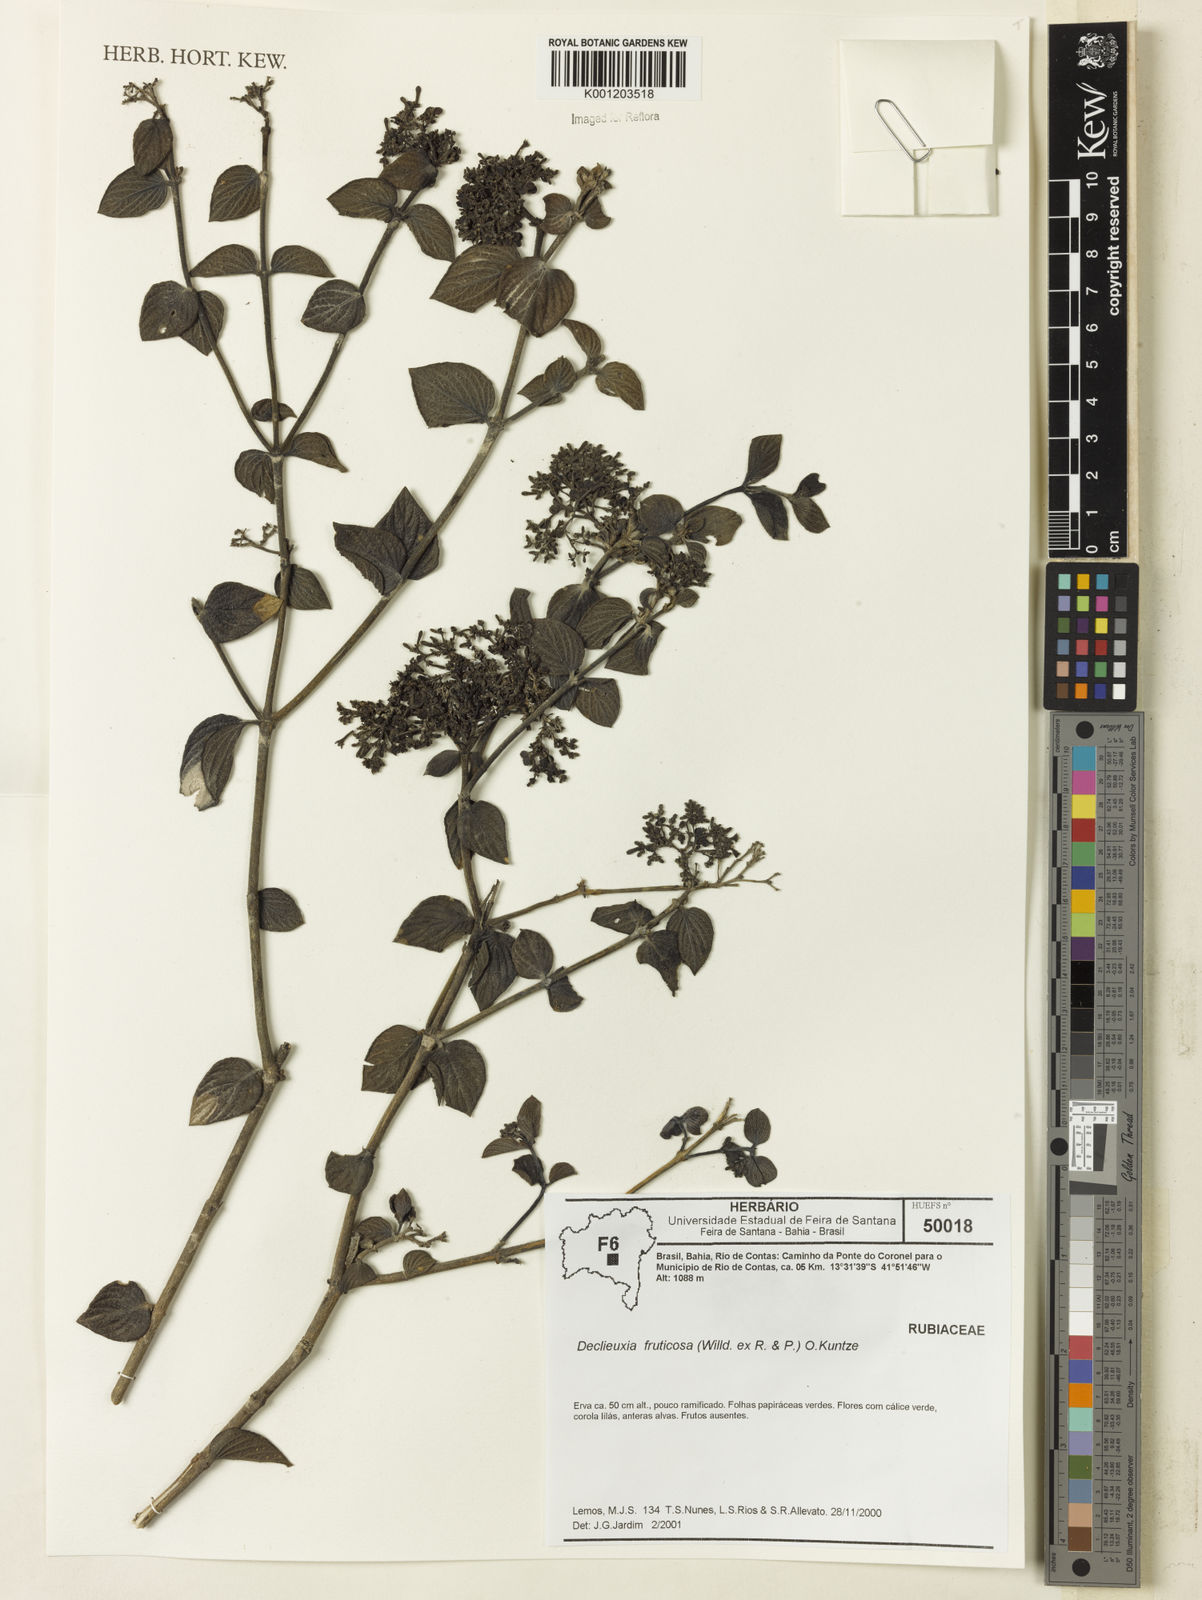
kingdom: Plantae
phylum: Tracheophyta
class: Magnoliopsida
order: Gentianales
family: Rubiaceae
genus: Declieuxia
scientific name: Declieuxia fruticosa
